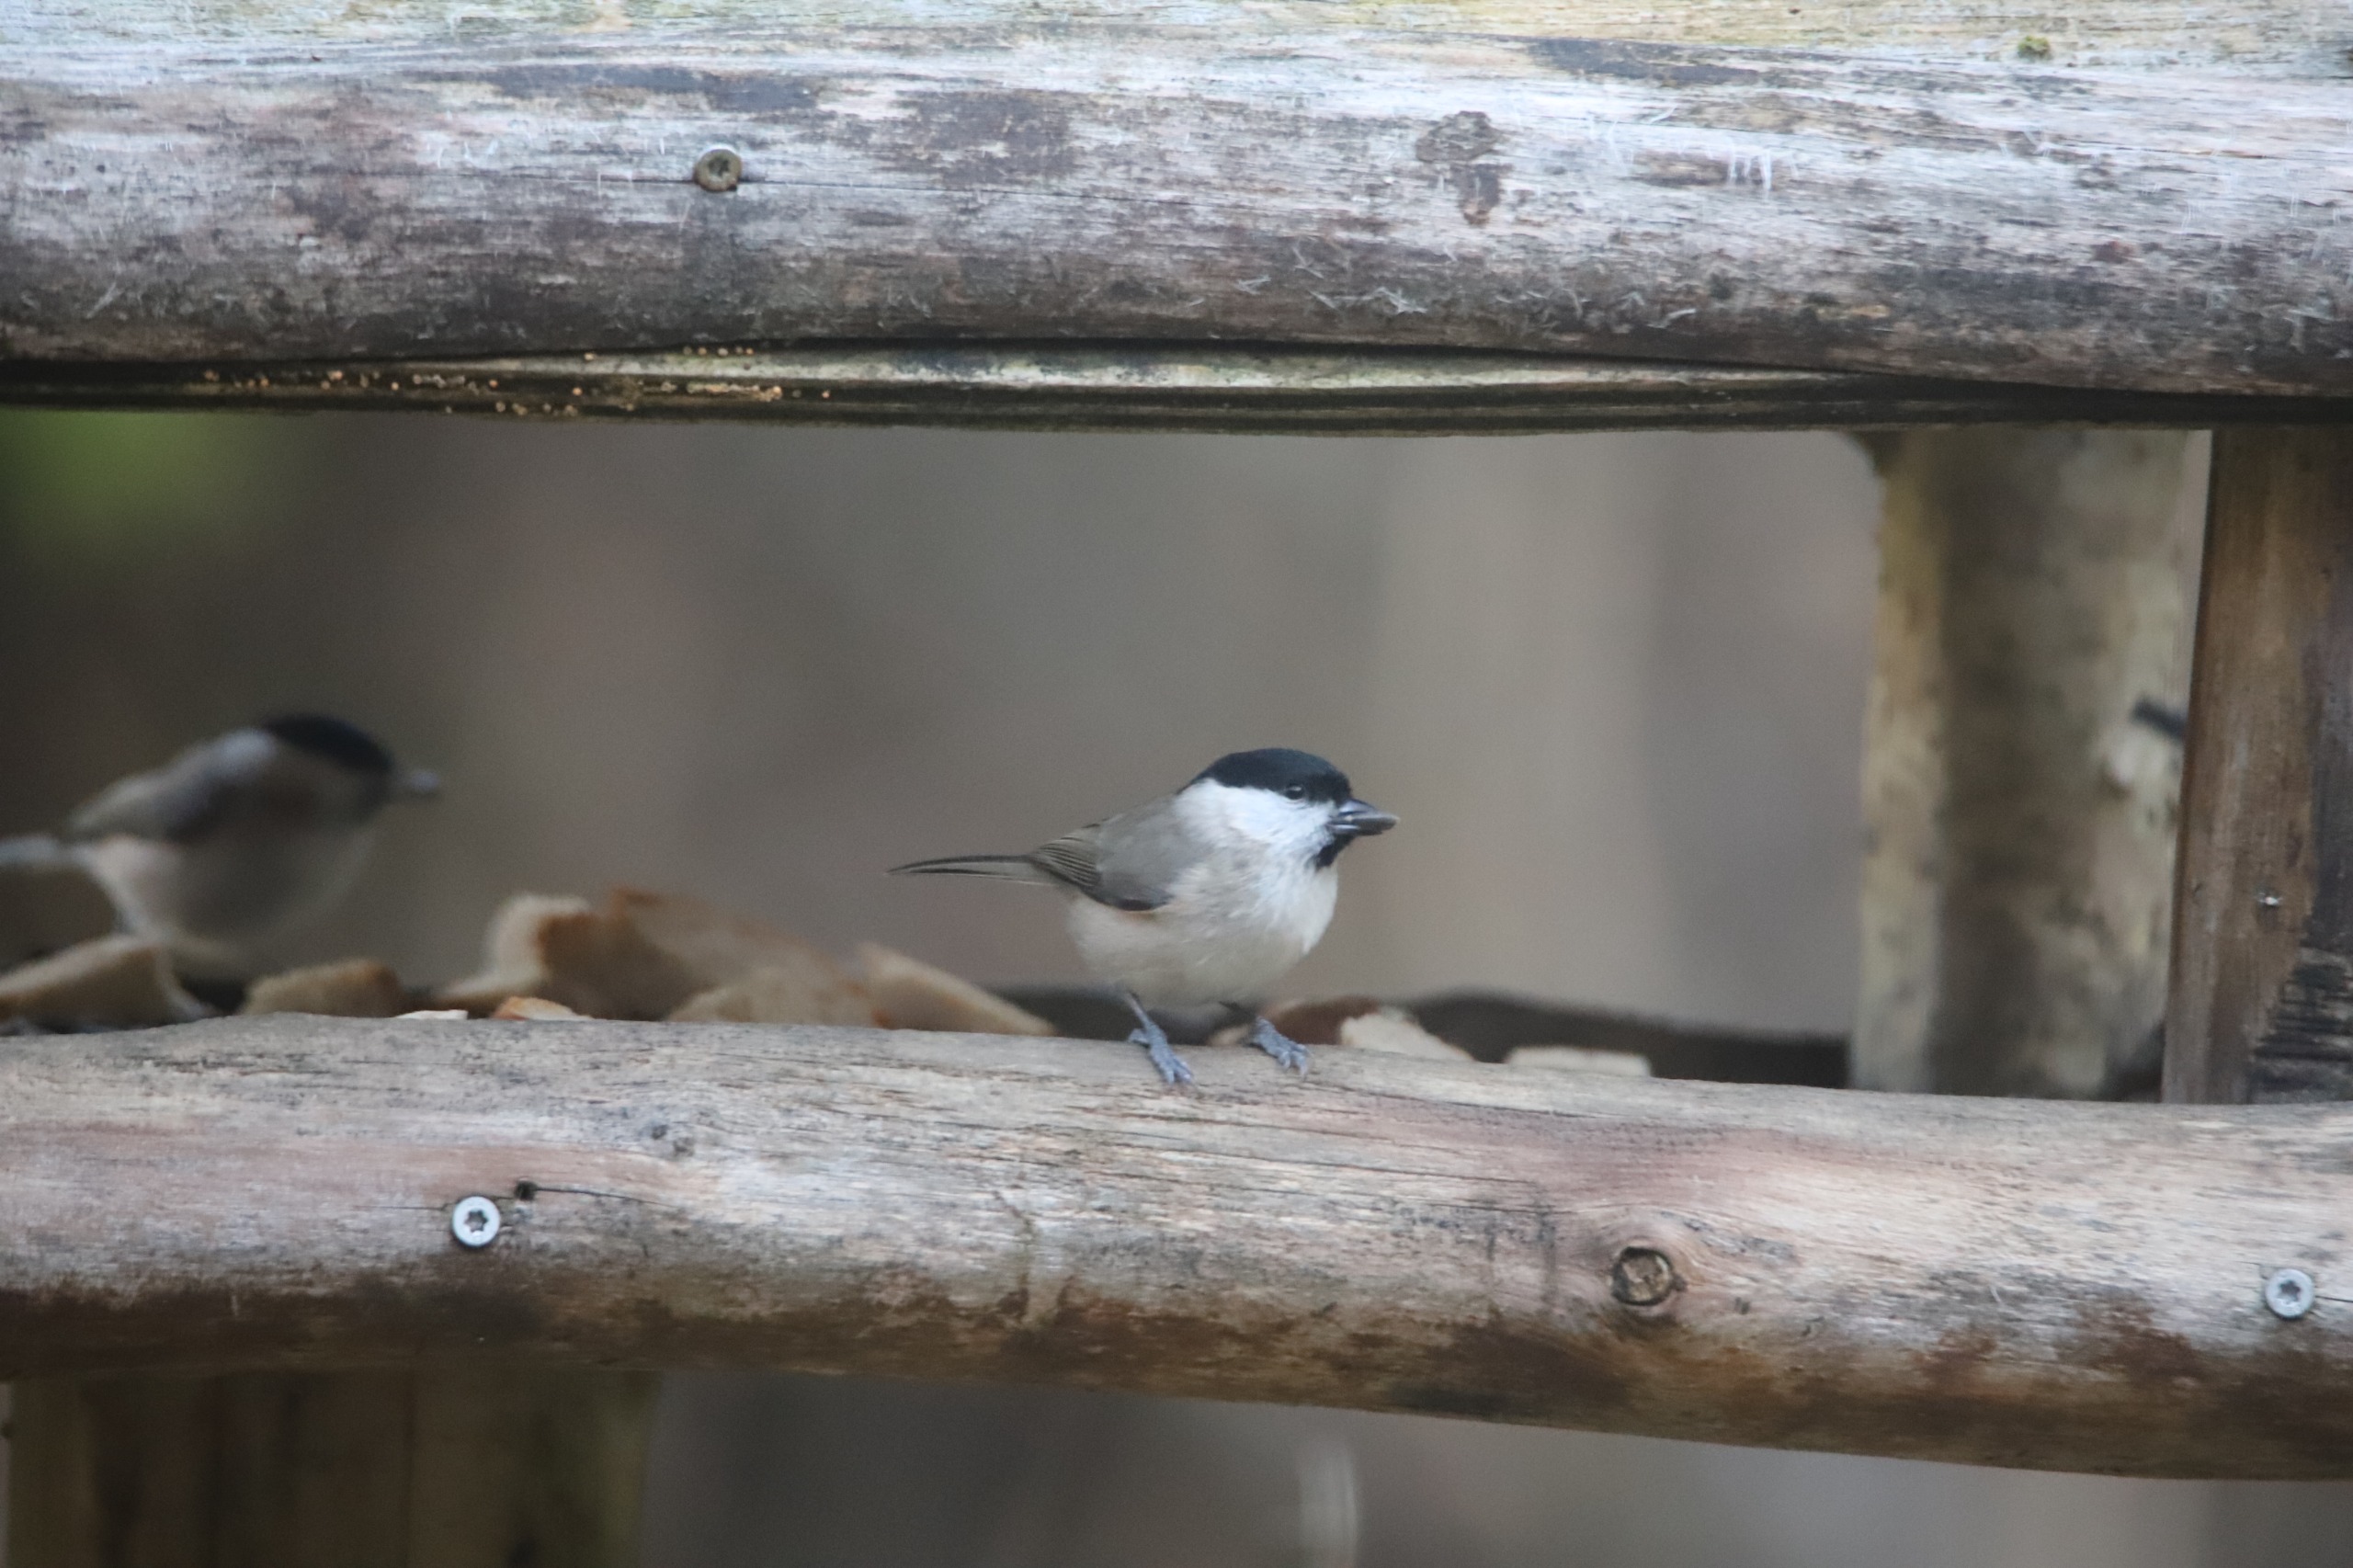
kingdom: Animalia
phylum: Chordata
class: Aves
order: Passeriformes
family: Paridae
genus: Poecile
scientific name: Poecile palustris
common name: Sumpmejse
